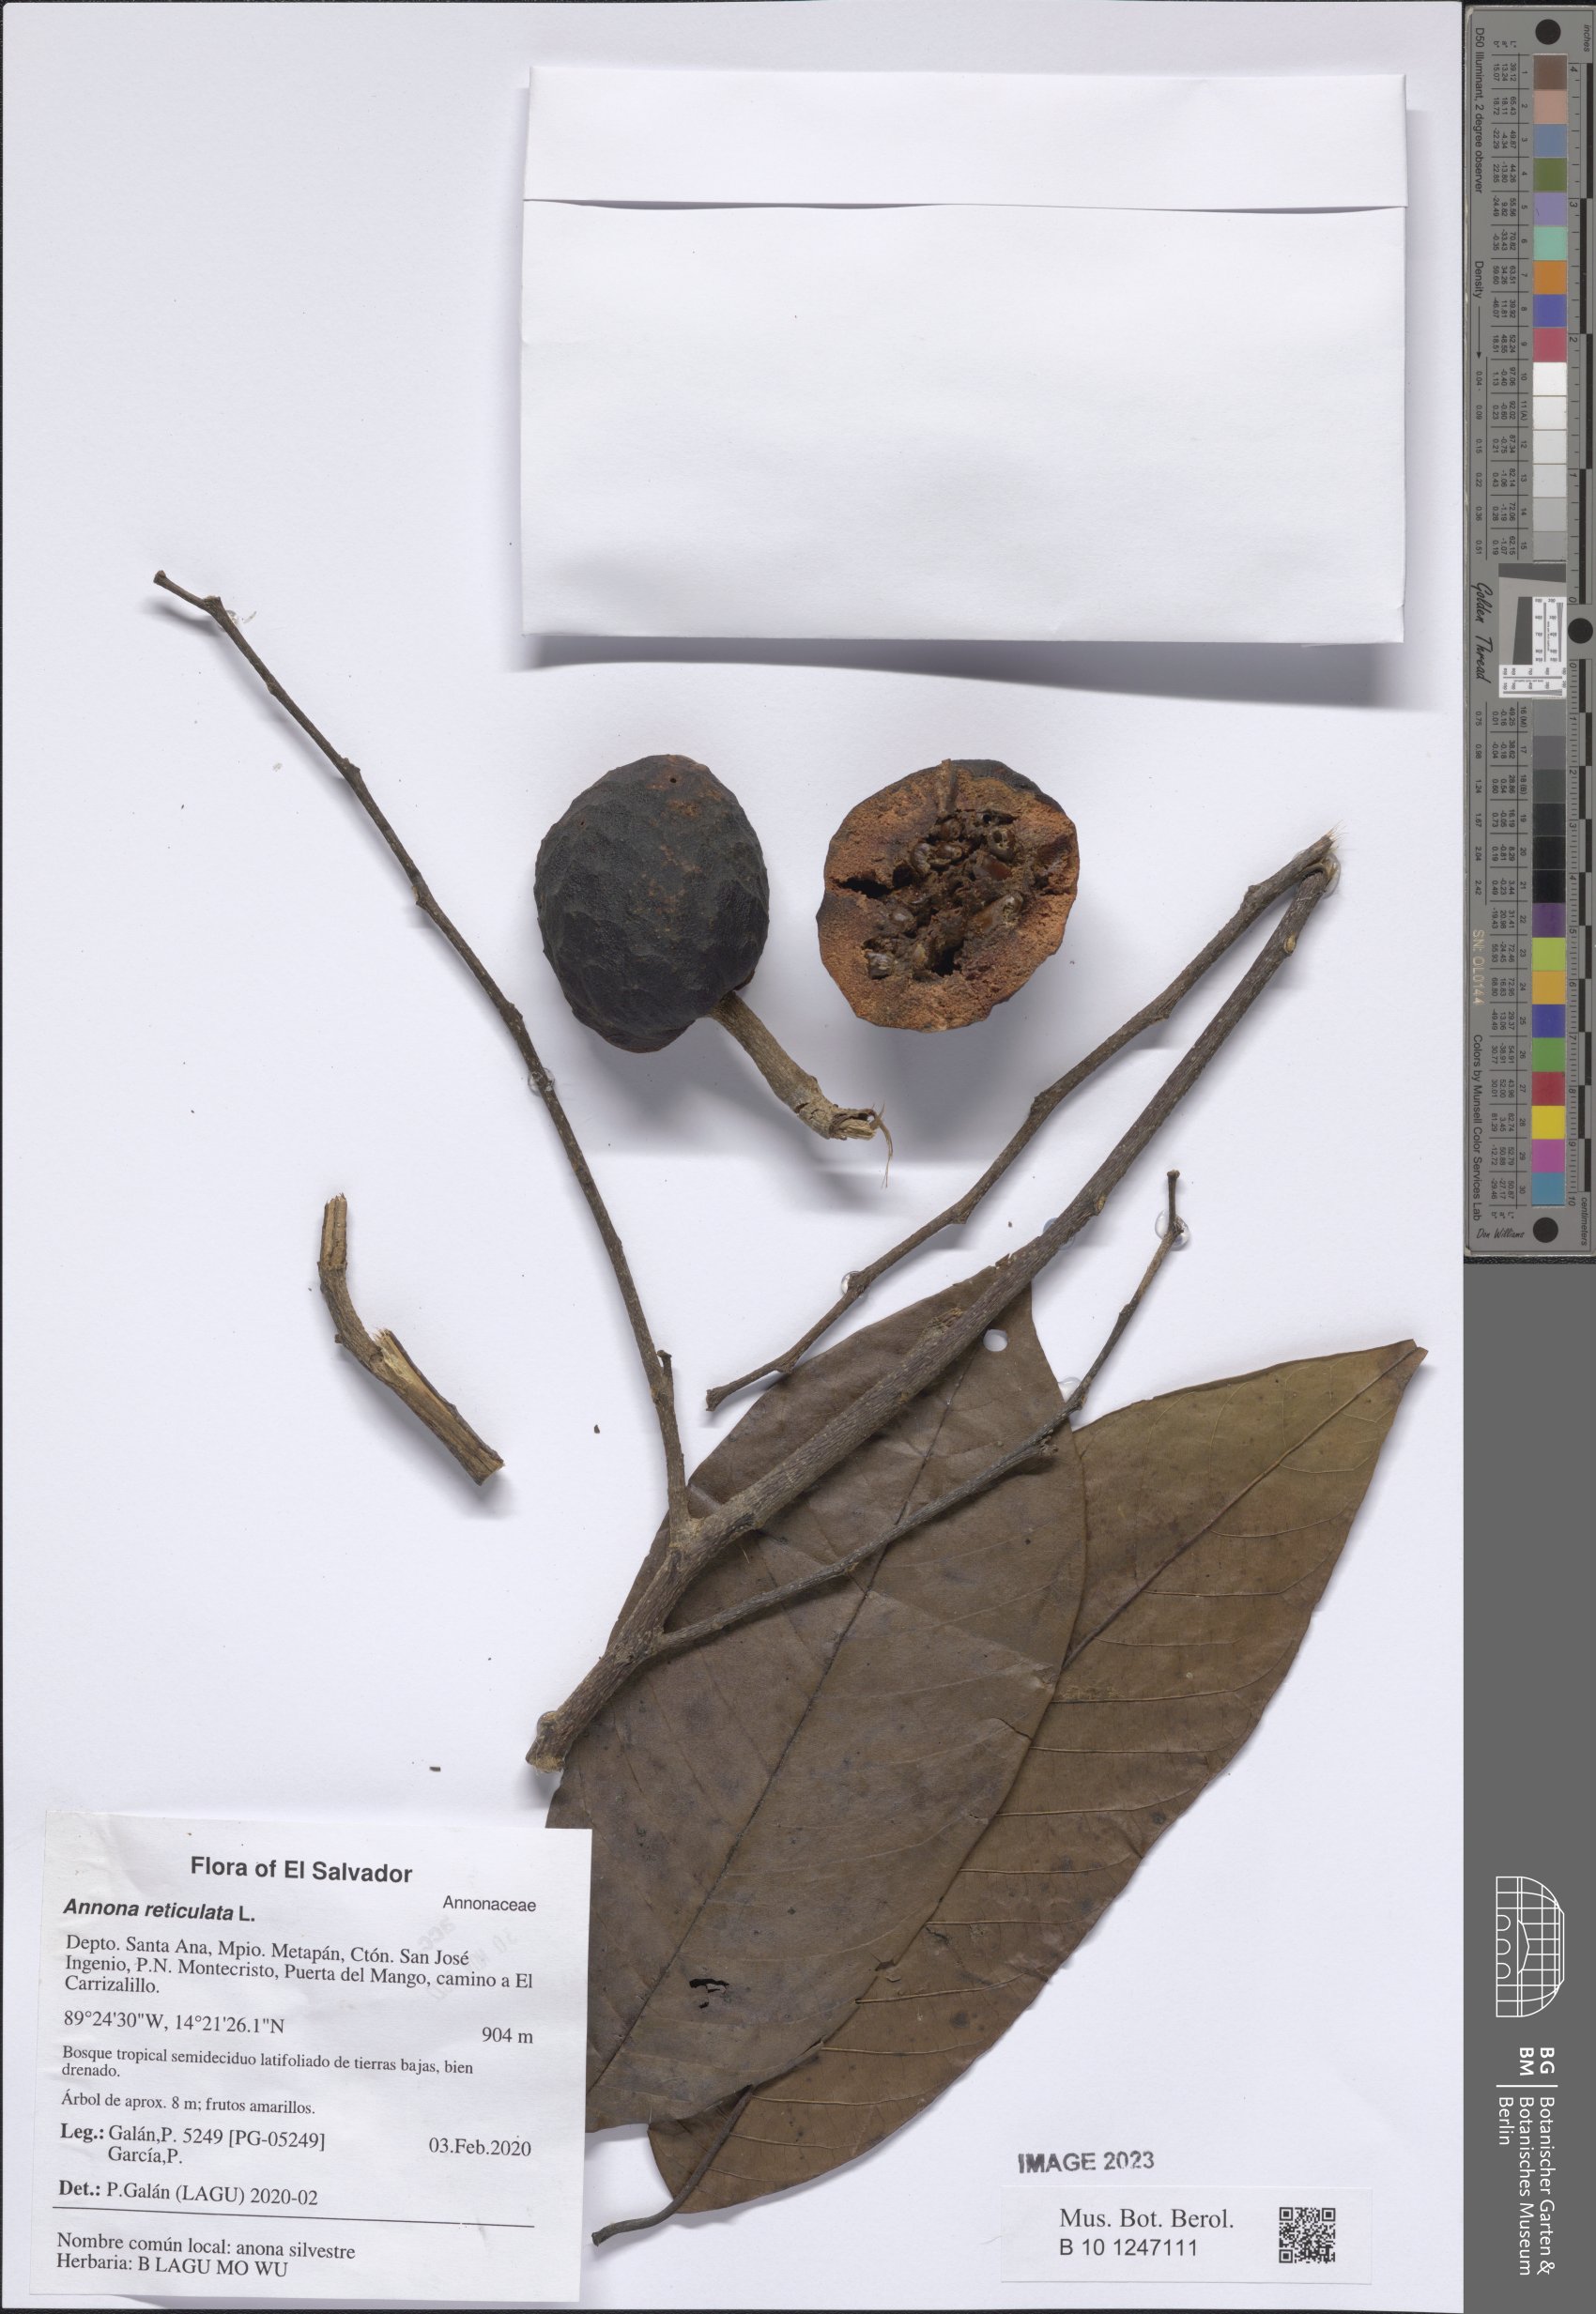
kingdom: Plantae
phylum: Tracheophyta
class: Magnoliopsida
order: Magnoliales
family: Annonaceae
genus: Annona
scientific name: Annona reticulata
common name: Custard apple
